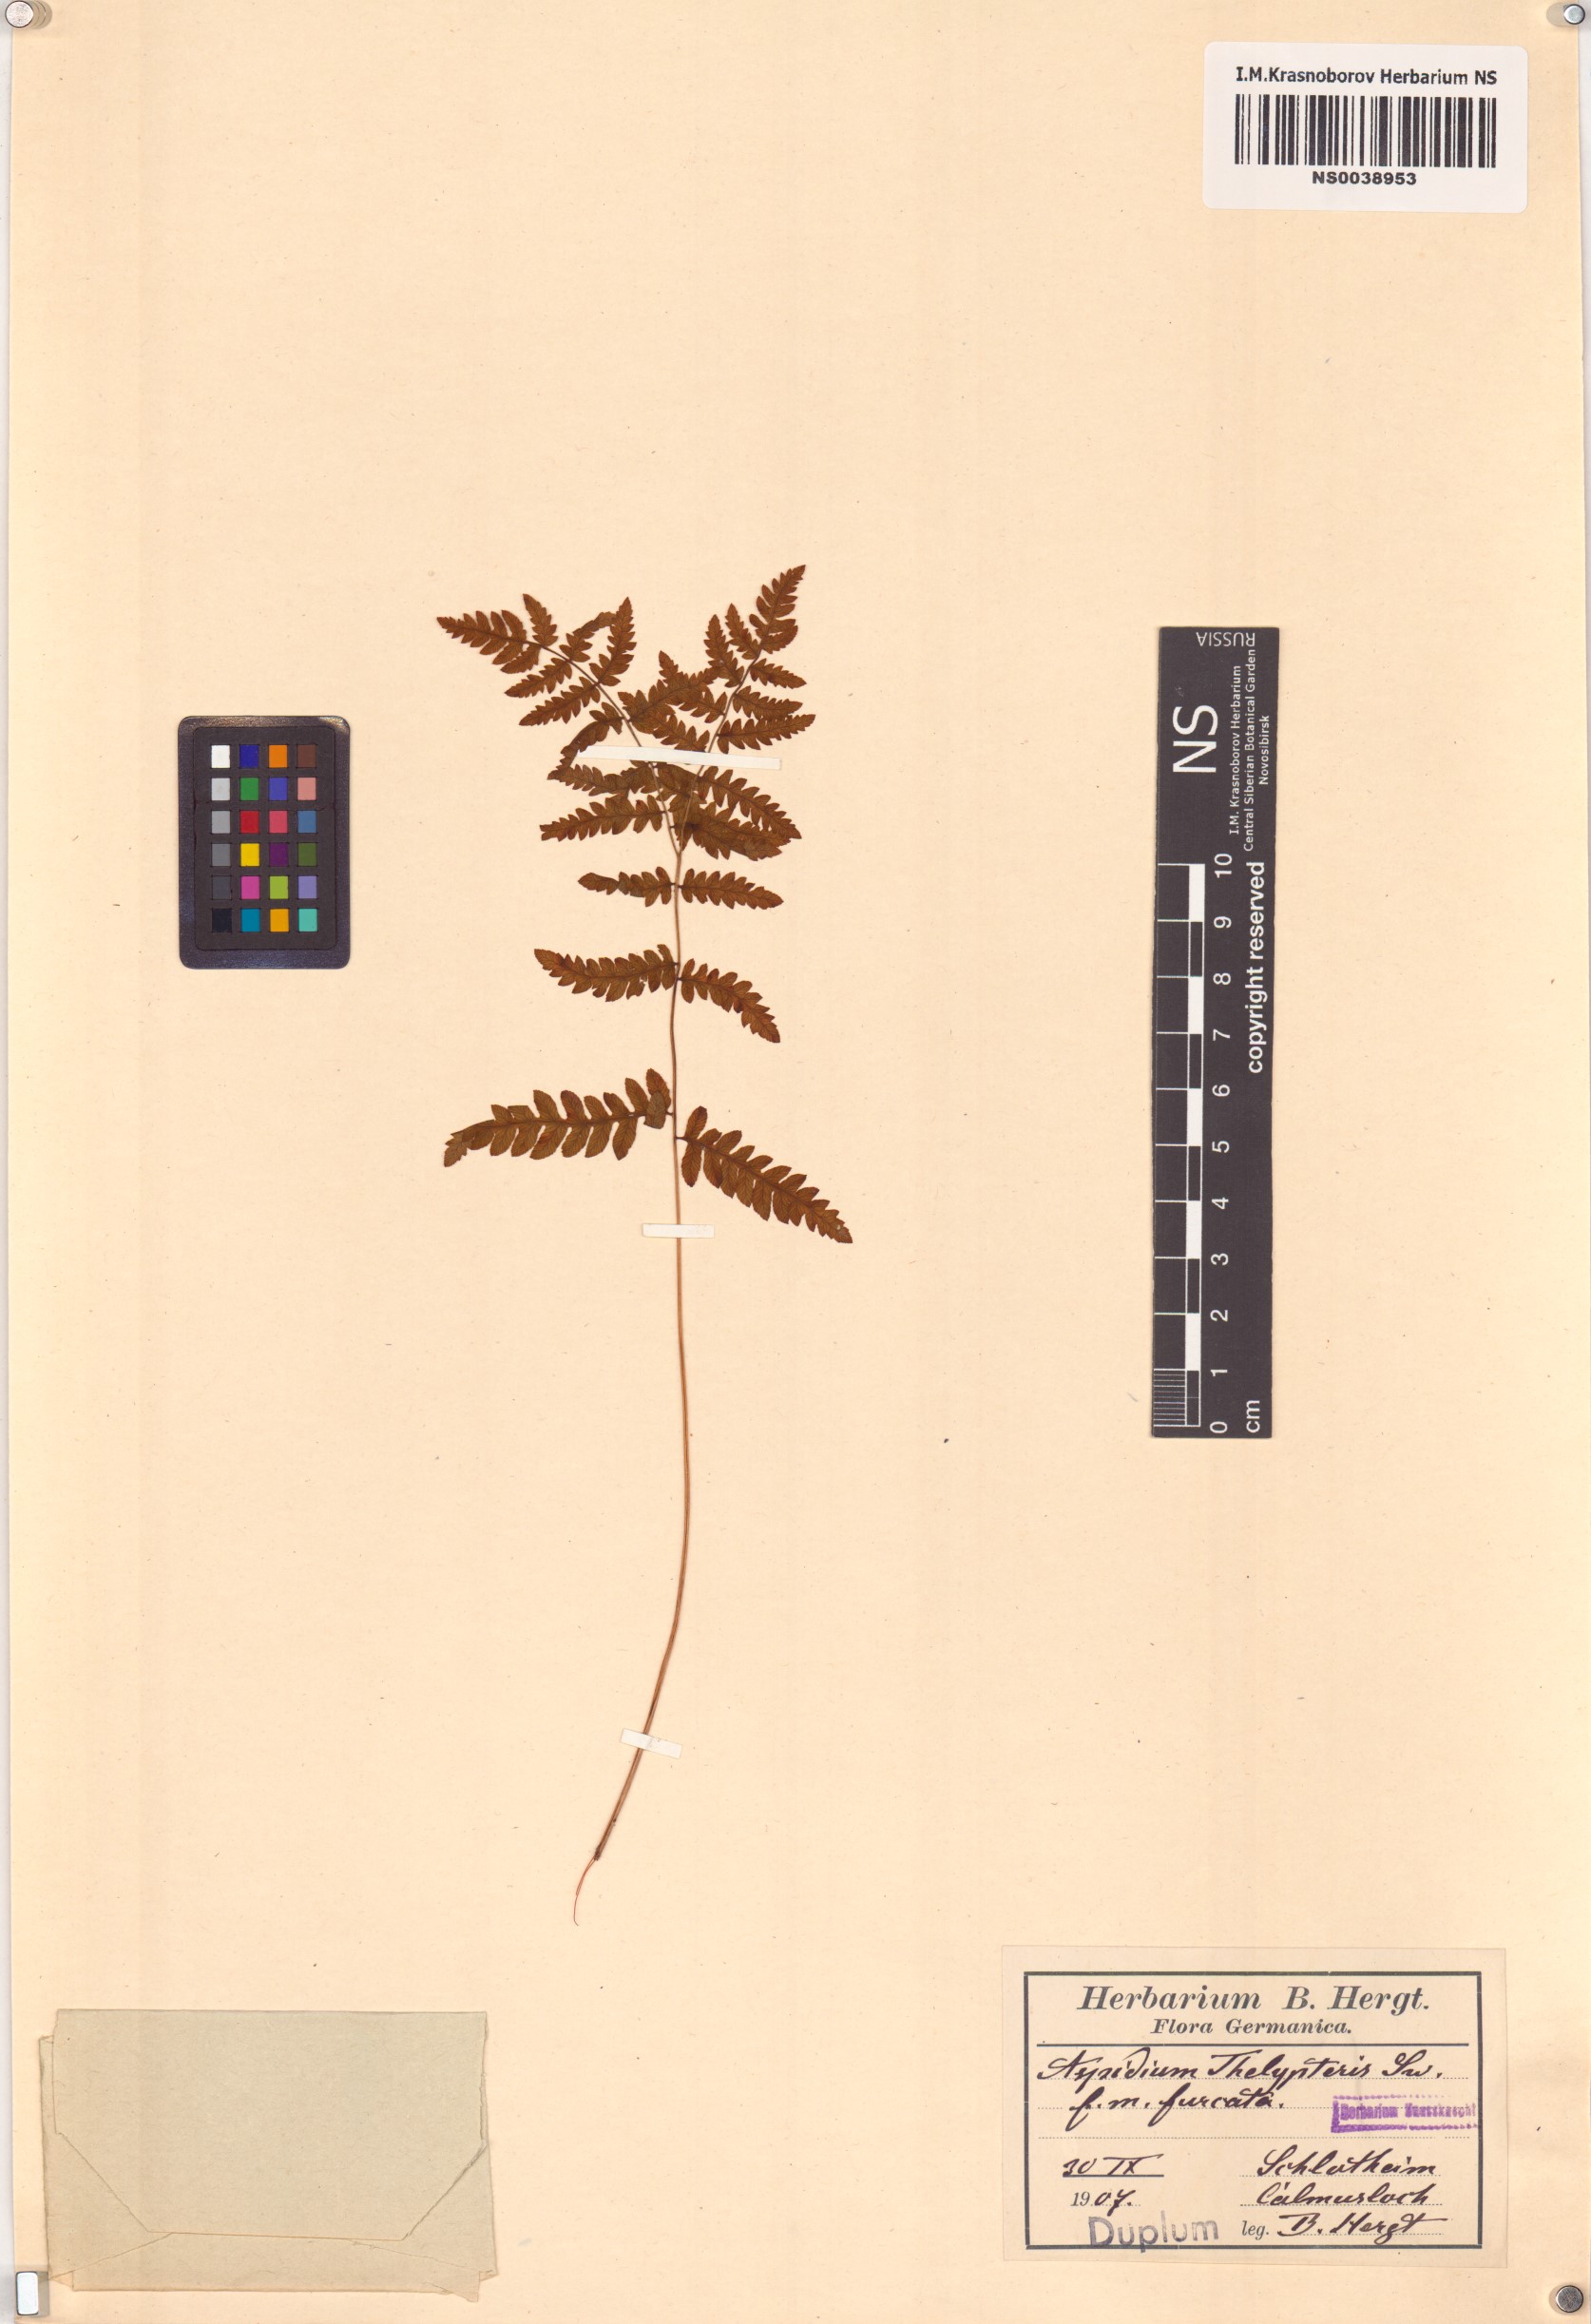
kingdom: Plantae
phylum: Tracheophyta
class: Polypodiopsida
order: Polypodiales
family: Thelypteridaceae
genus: Thelypteris
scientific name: Thelypteris palustris
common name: Marsh fern
